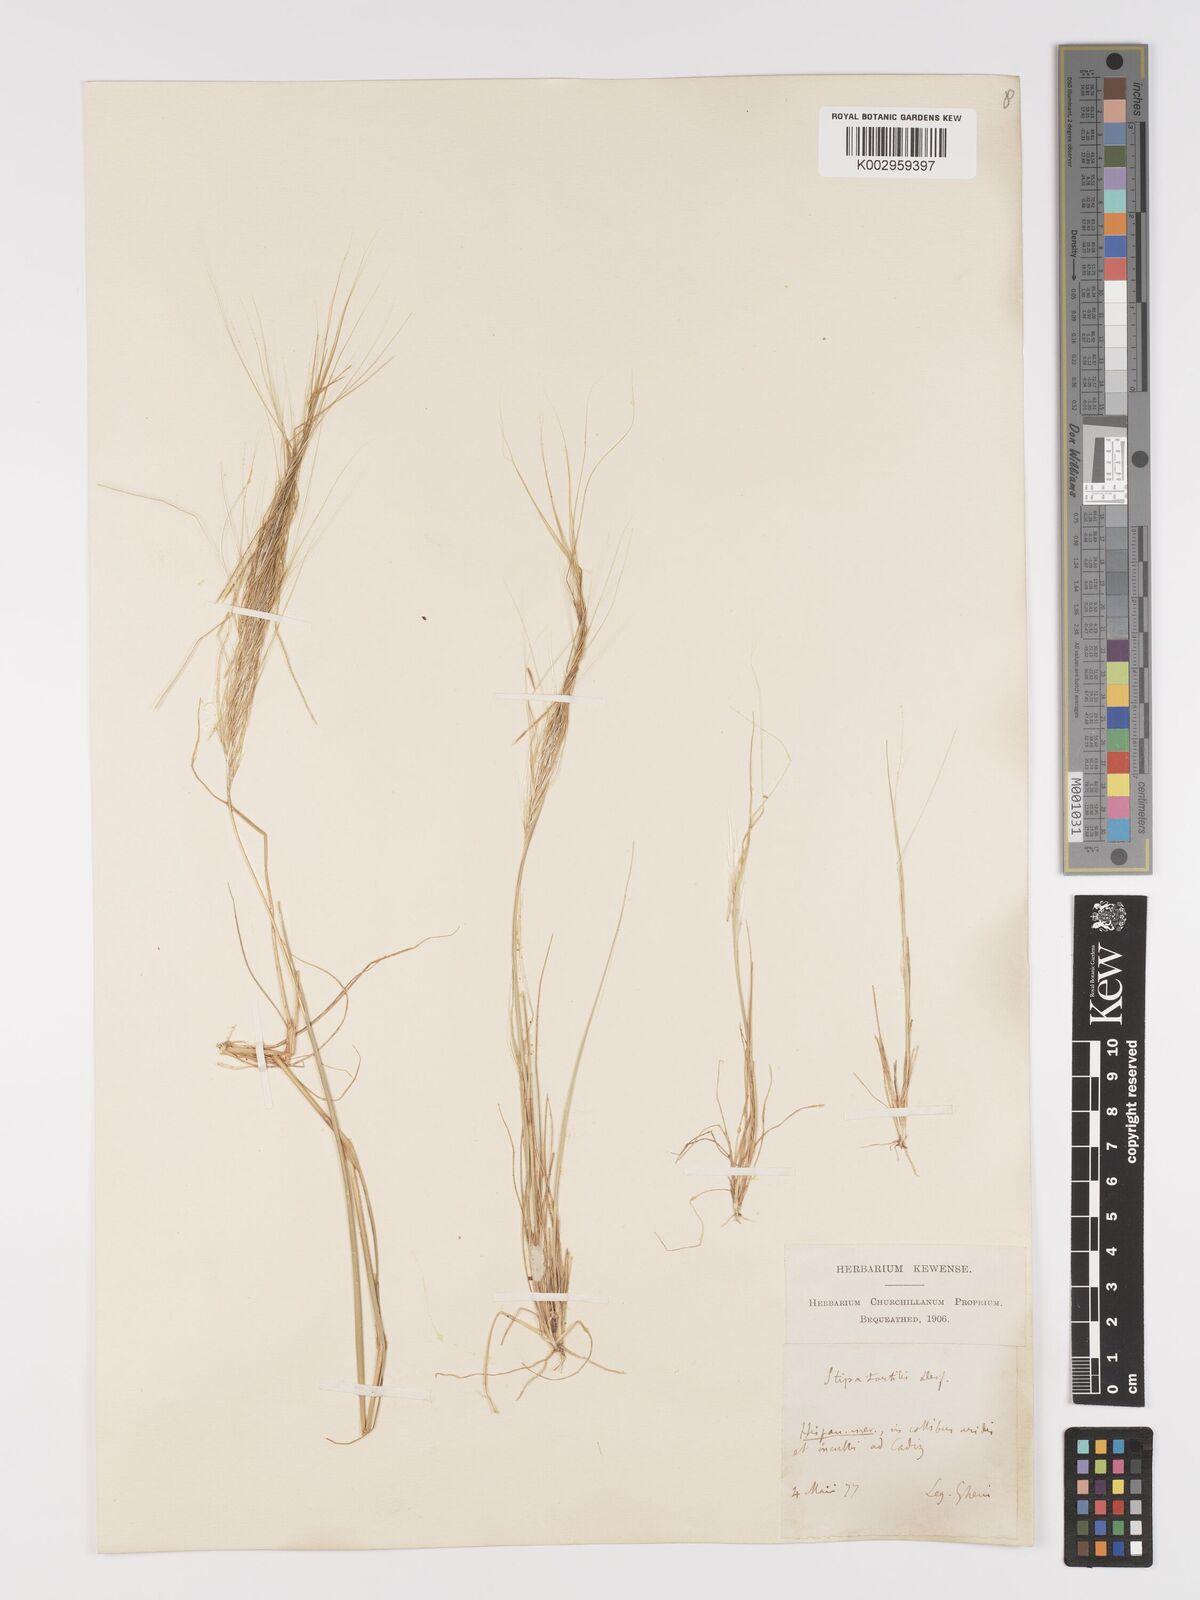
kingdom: Plantae
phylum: Tracheophyta
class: Liliopsida
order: Poales
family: Poaceae
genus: Stipellula
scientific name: Stipellula capensis
